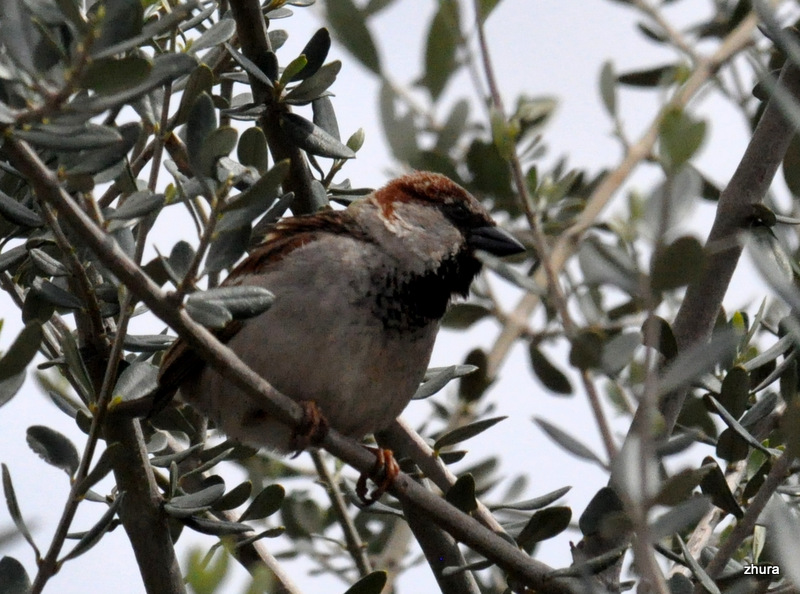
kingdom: Animalia
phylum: Chordata
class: Aves
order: Passeriformes
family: Passeridae
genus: Passer
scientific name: Passer domesticus
